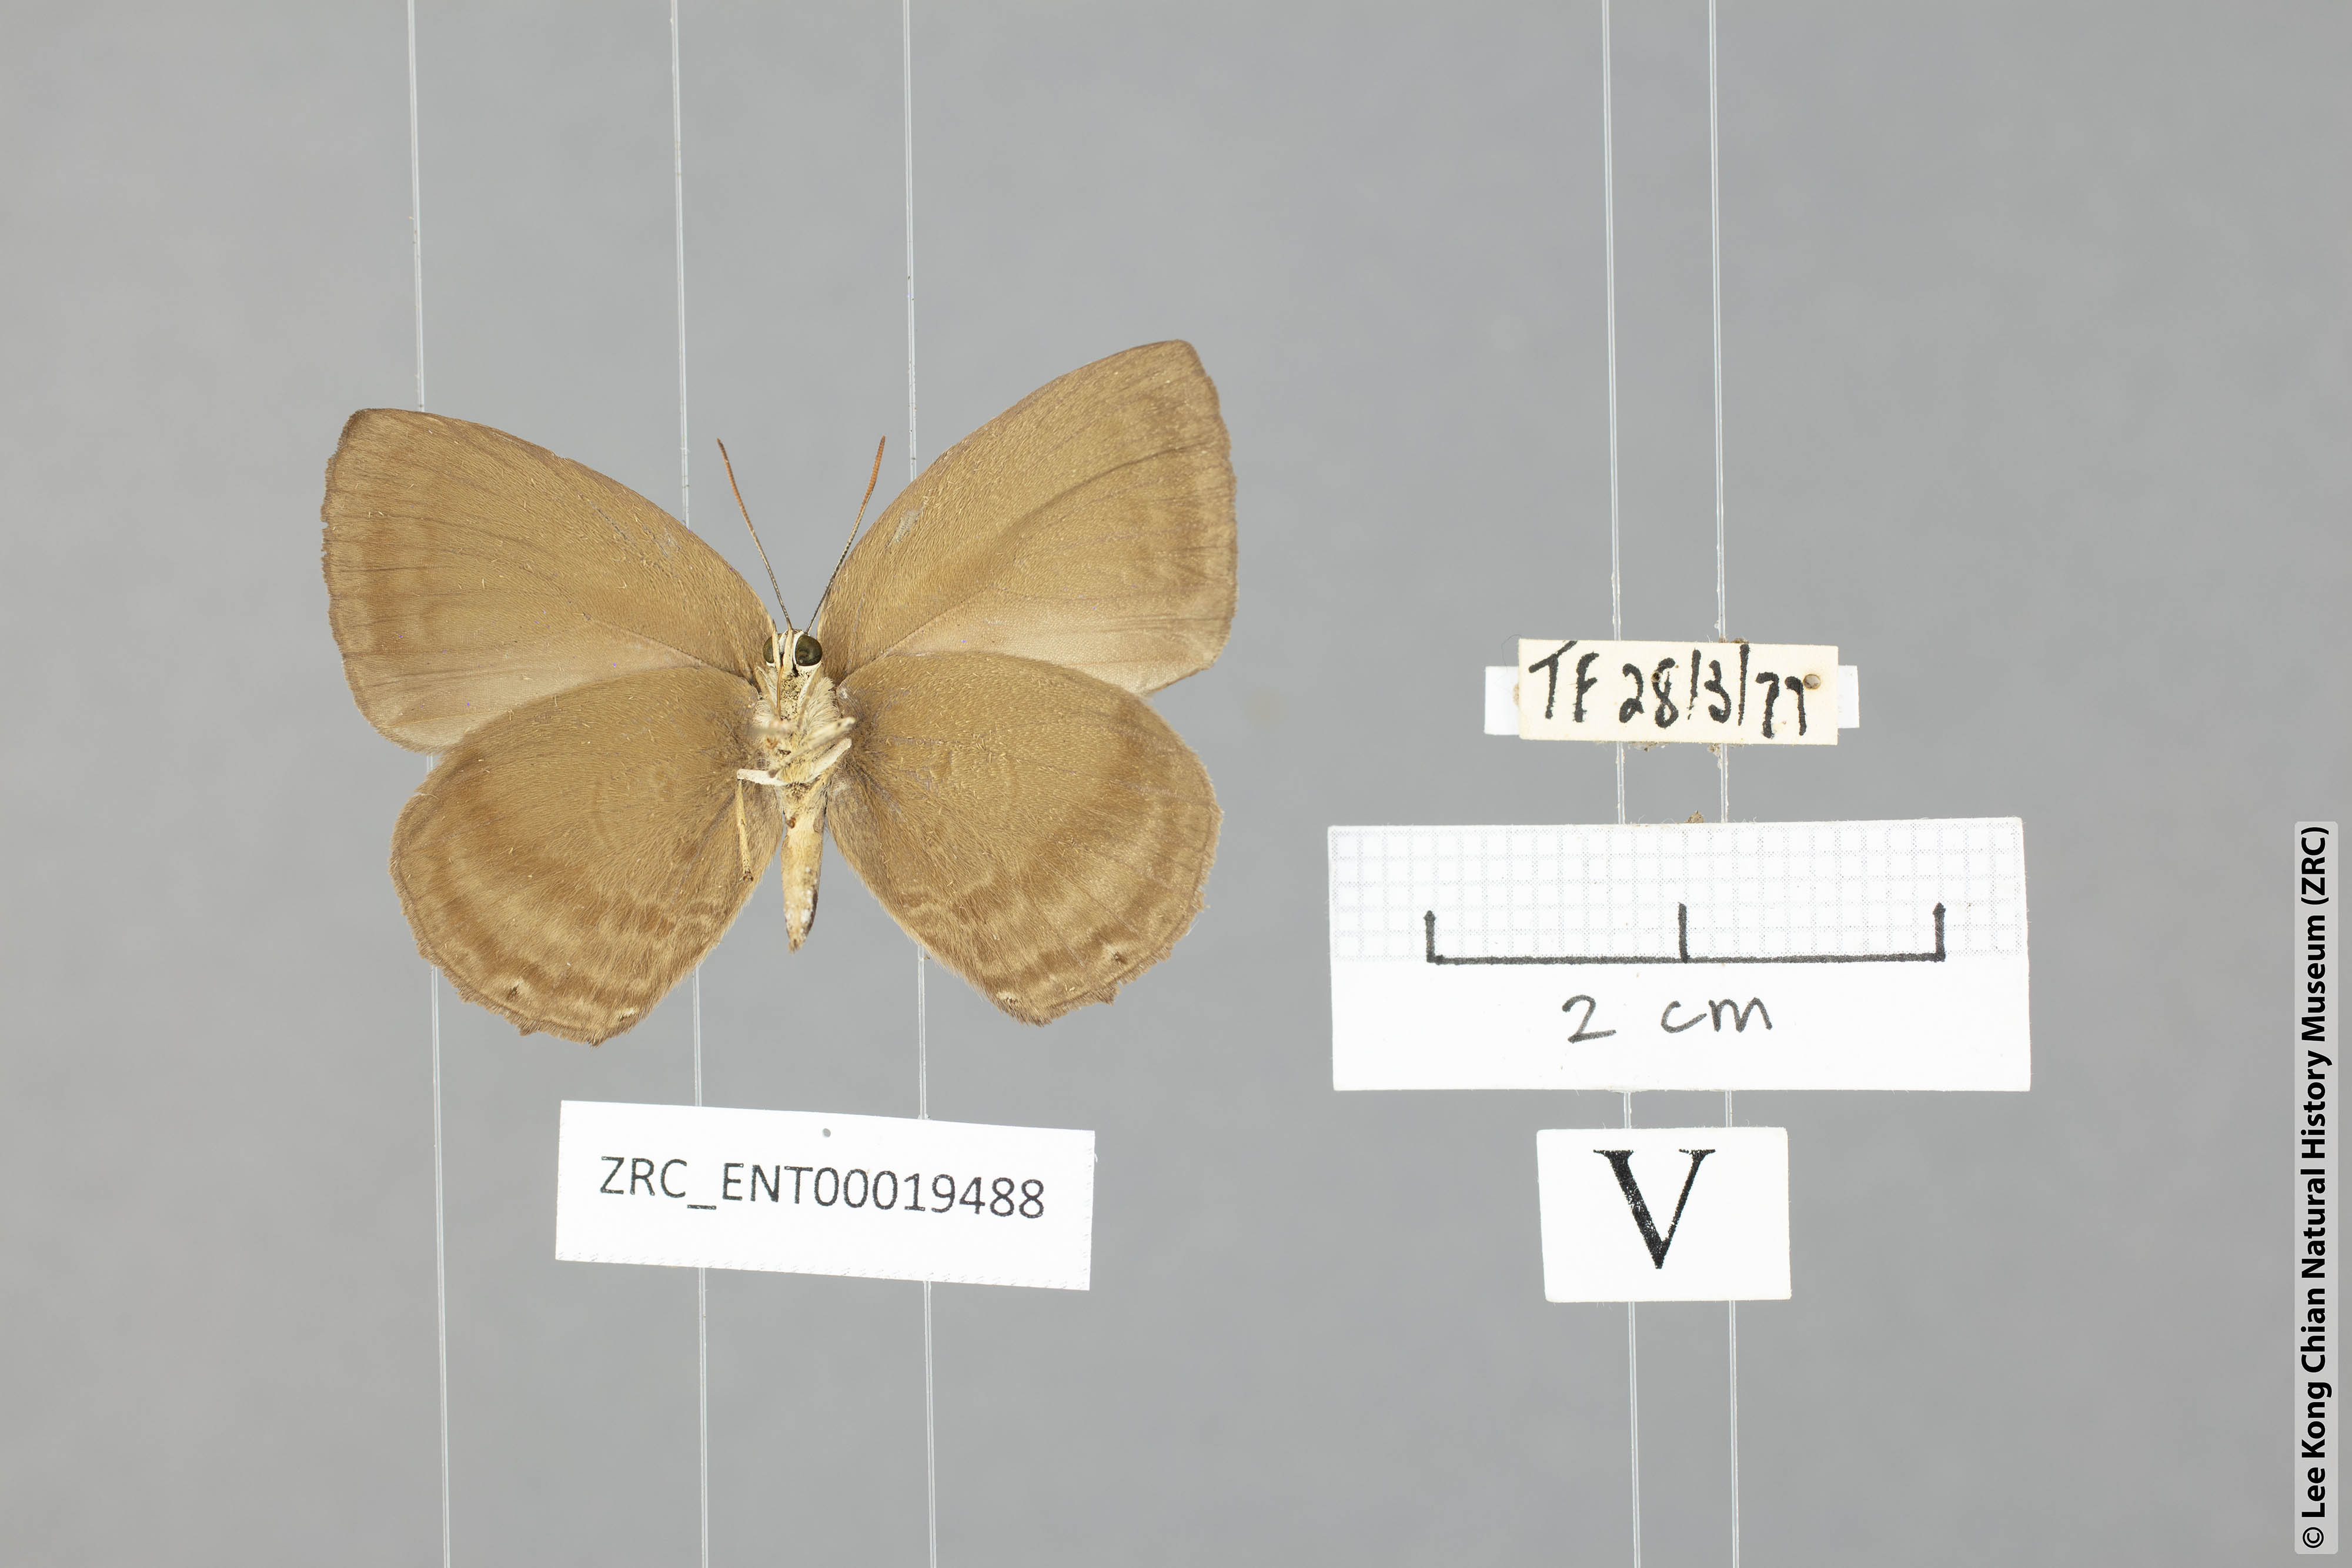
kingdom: Animalia
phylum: Arthropoda
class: Insecta
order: Lepidoptera
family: Lycaenidae
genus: Arhopala
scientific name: Arhopala fulla
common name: Spotless oakblue
